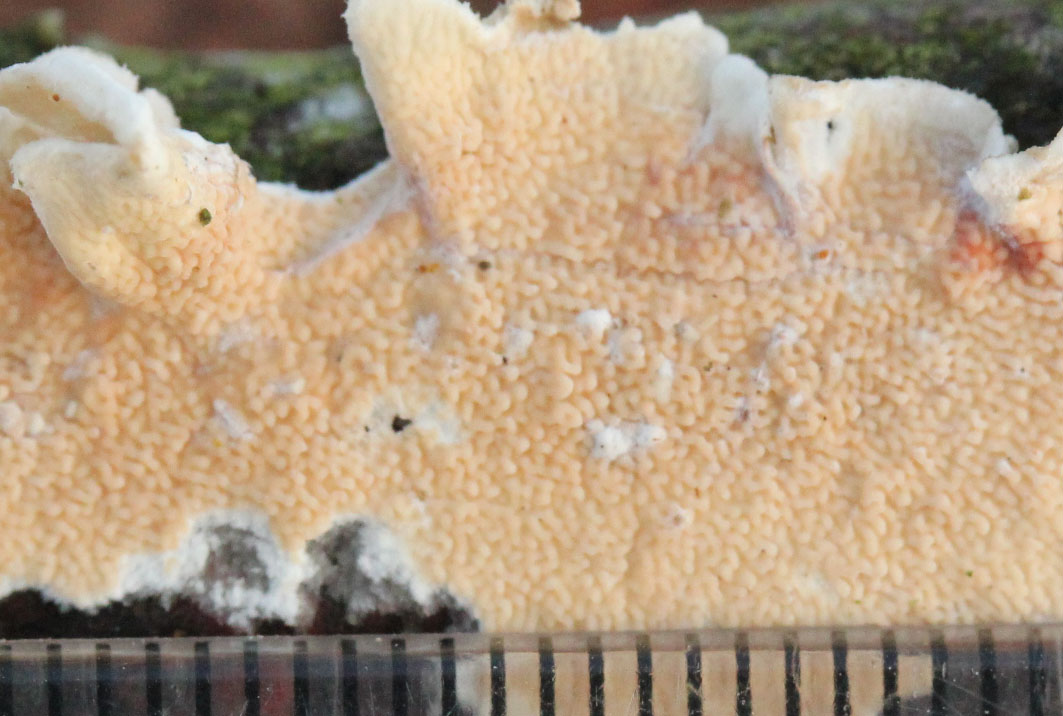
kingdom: Fungi
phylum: Basidiomycota
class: Agaricomycetes
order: Polyporales
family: Irpicaceae
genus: Byssomerulius
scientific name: Byssomerulius corium
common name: læder-åresvamp
